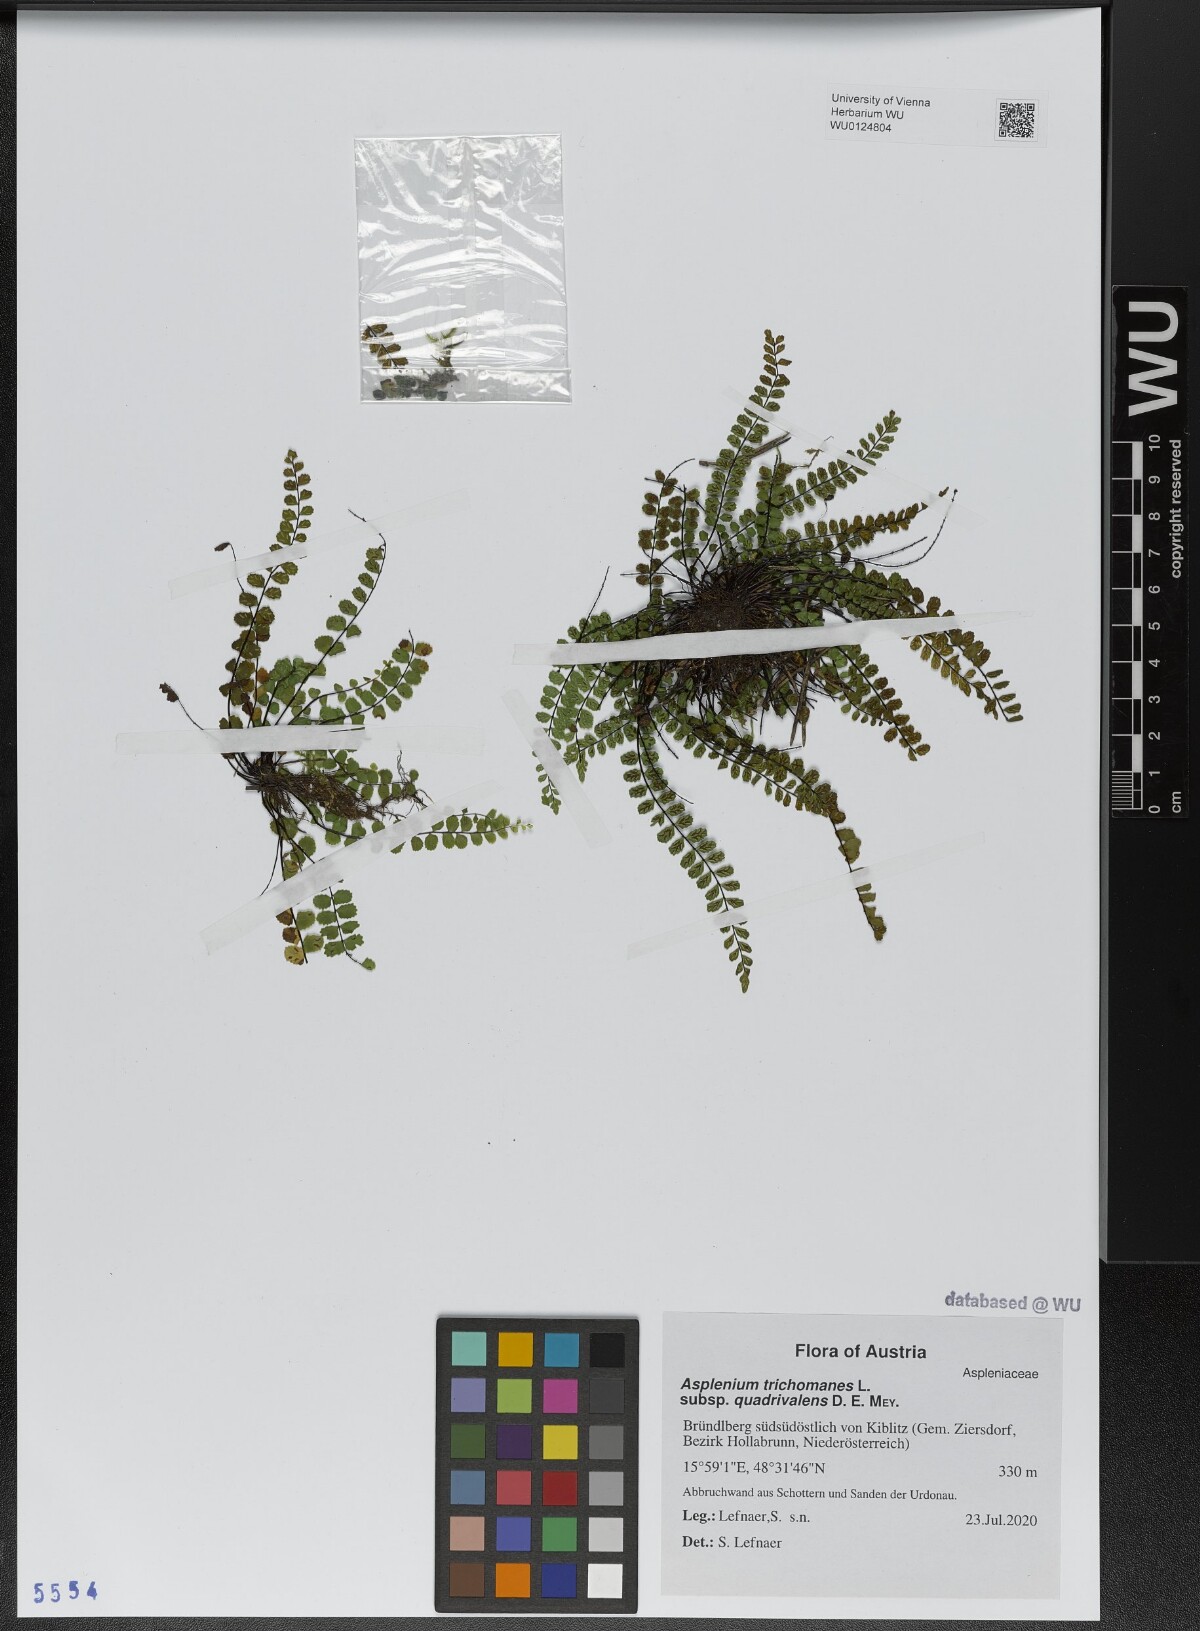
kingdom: Plantae
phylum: Tracheophyta
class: Polypodiopsida
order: Polypodiales
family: Aspleniaceae
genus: Asplenium
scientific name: Asplenium quadrivalens
